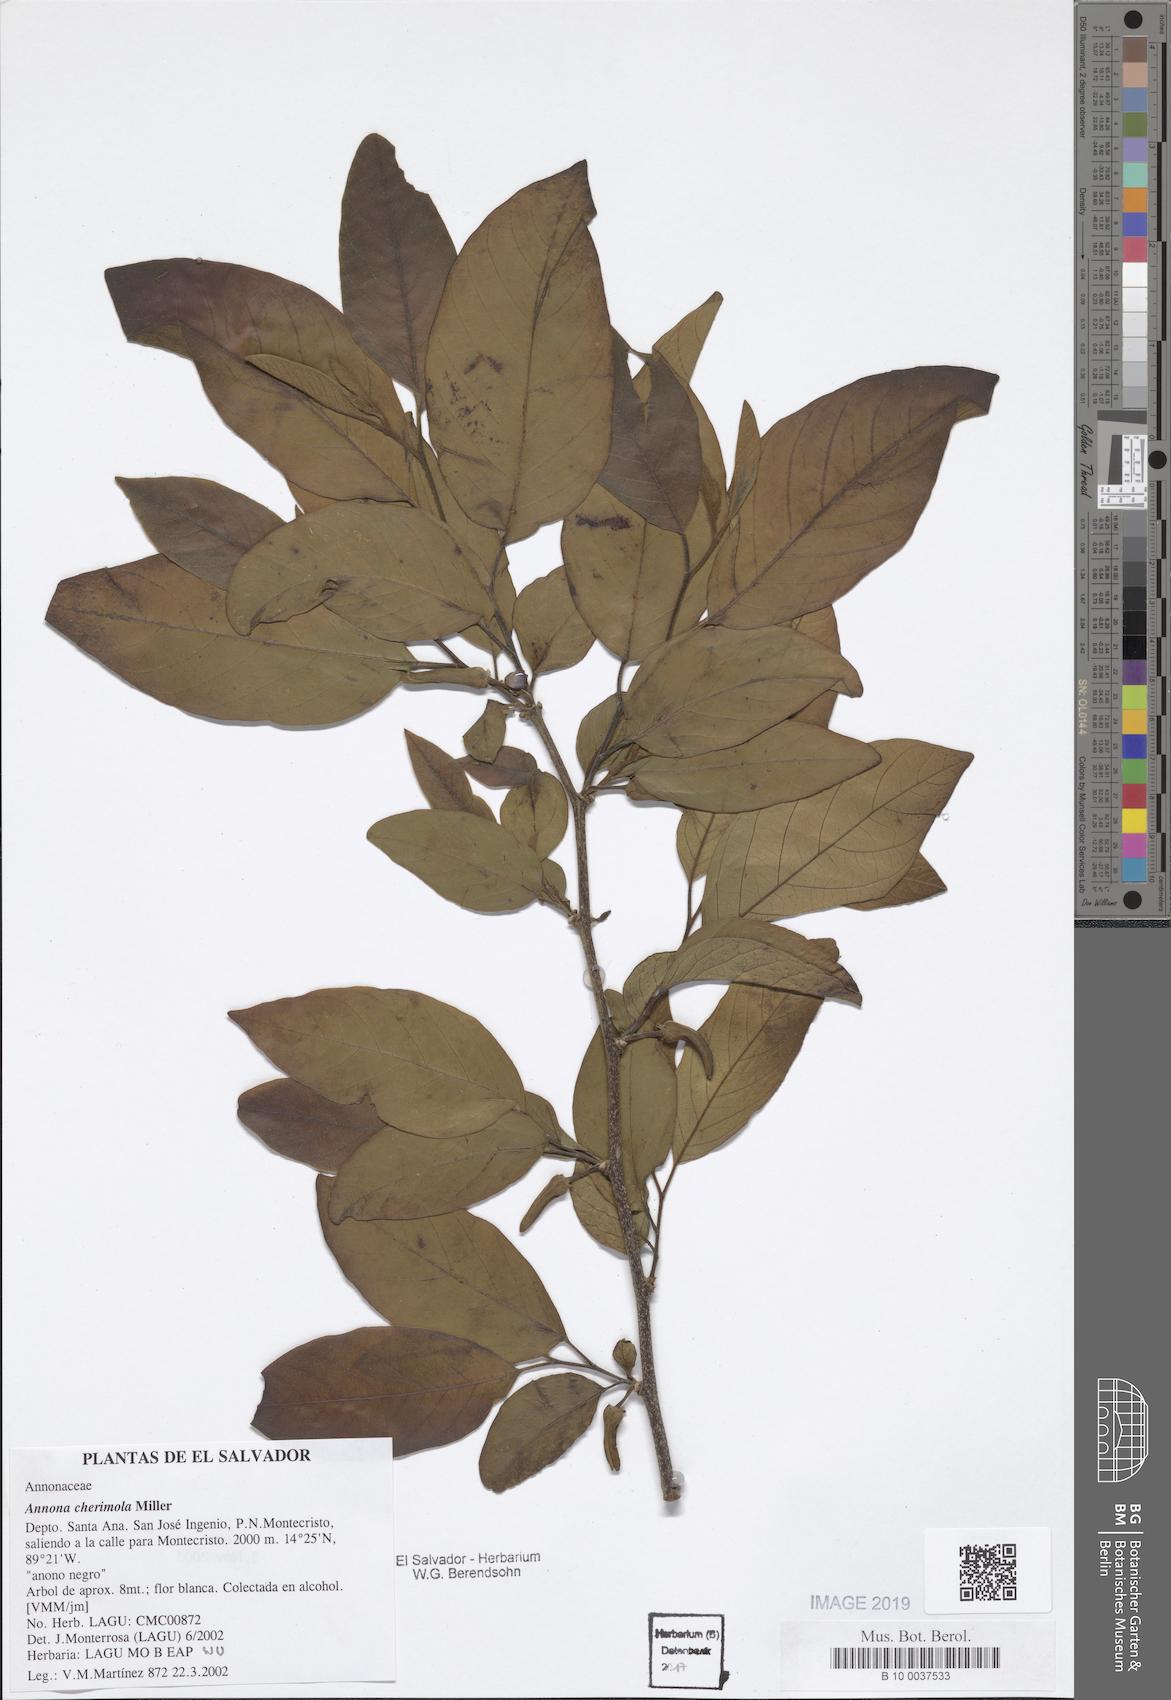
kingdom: Plantae
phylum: Tracheophyta
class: Magnoliopsida
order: Magnoliales
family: Annonaceae
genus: Annona
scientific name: Annona cherimola
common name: Cherimoya
